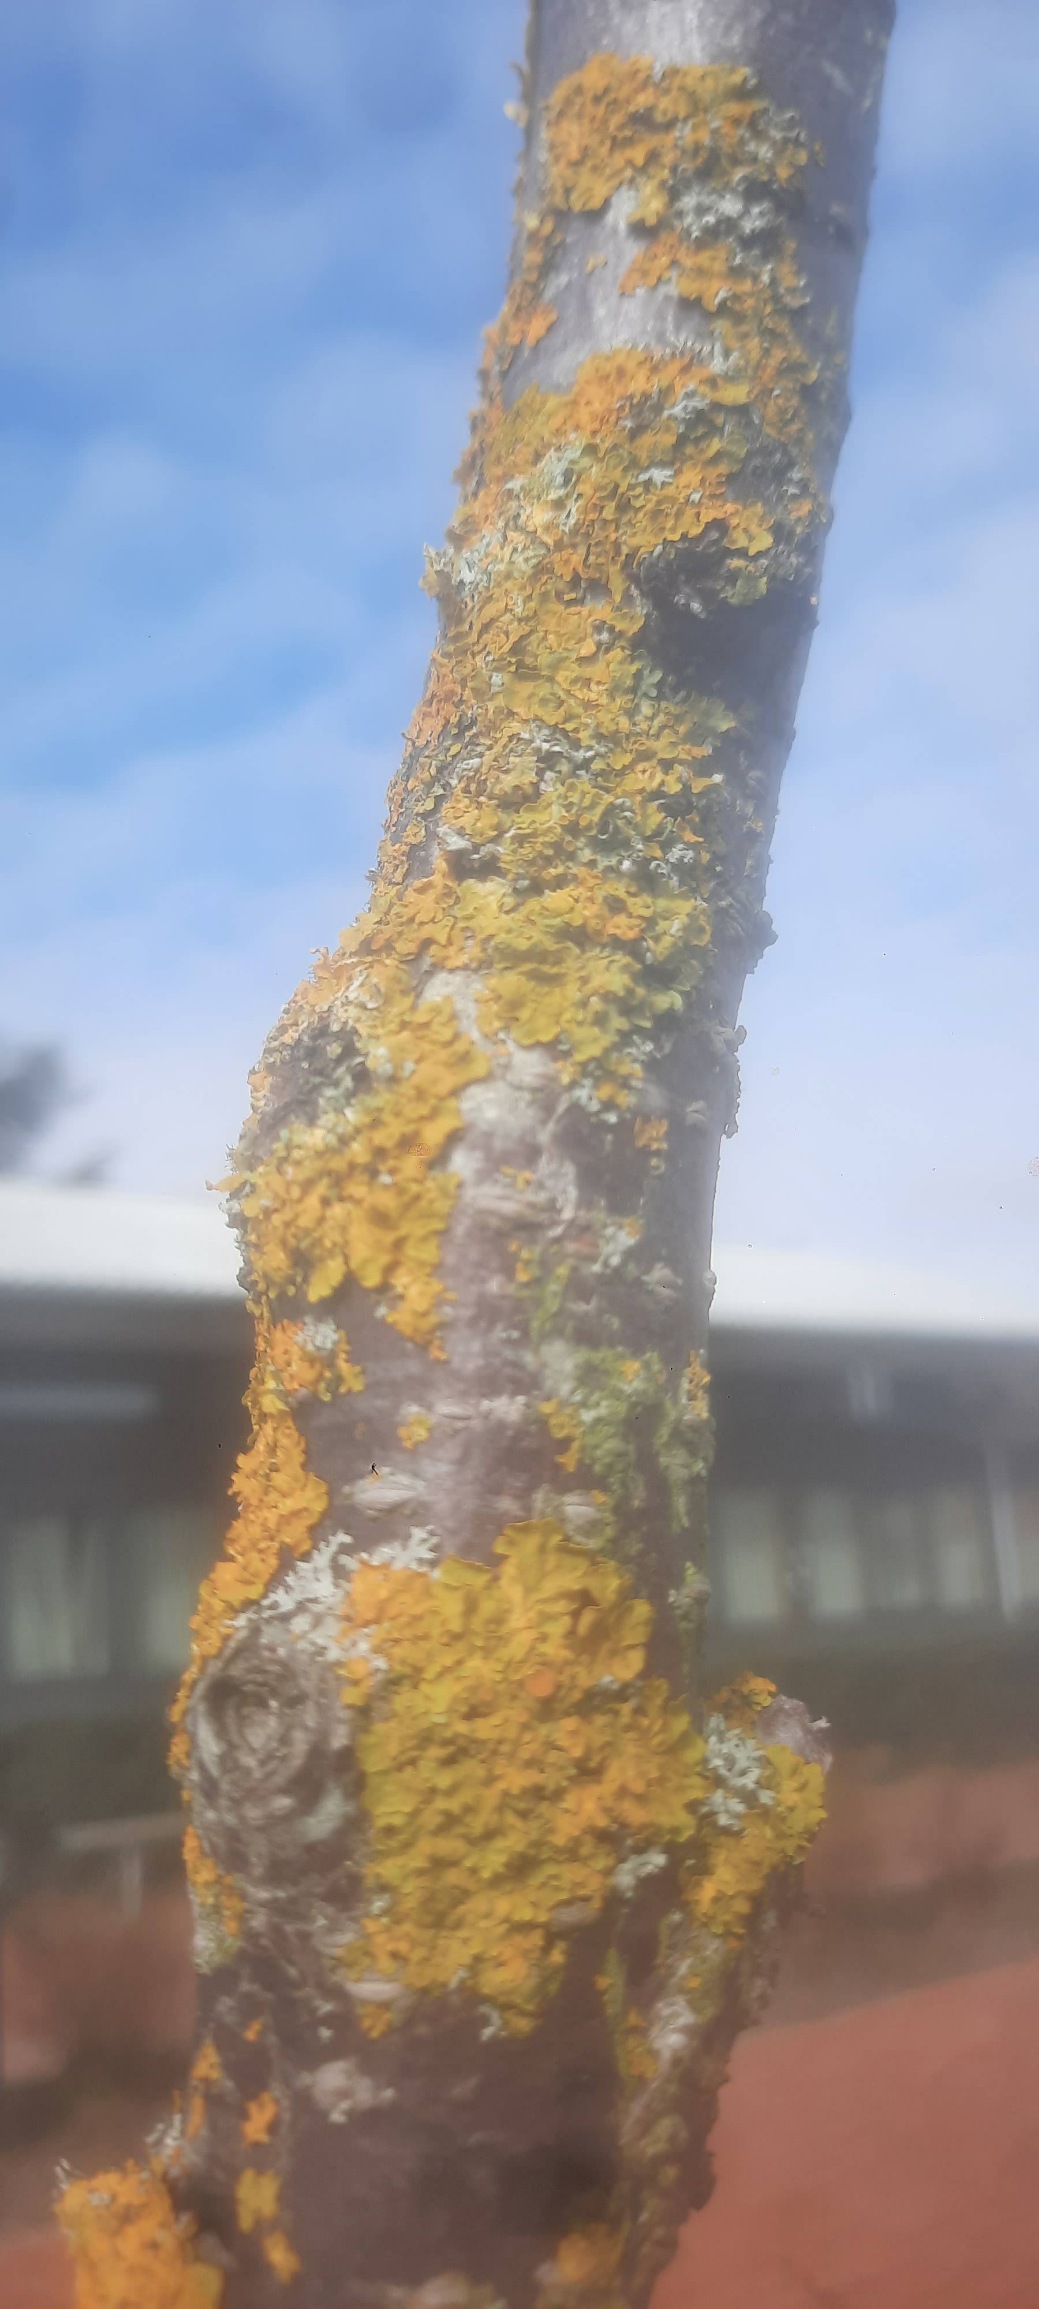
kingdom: Fungi
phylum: Ascomycota
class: Lecanoromycetes
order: Teloschistales
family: Teloschistaceae
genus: Xanthoria
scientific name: Xanthoria parietina
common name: Almindelig væggelav
